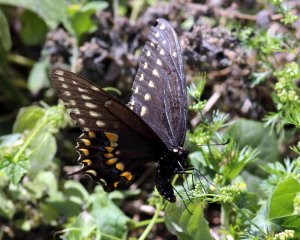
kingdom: Animalia
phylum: Arthropoda
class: Insecta
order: Lepidoptera
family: Papilionidae
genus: Papilio
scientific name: Papilio polyxenes
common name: Black Swallowtail
